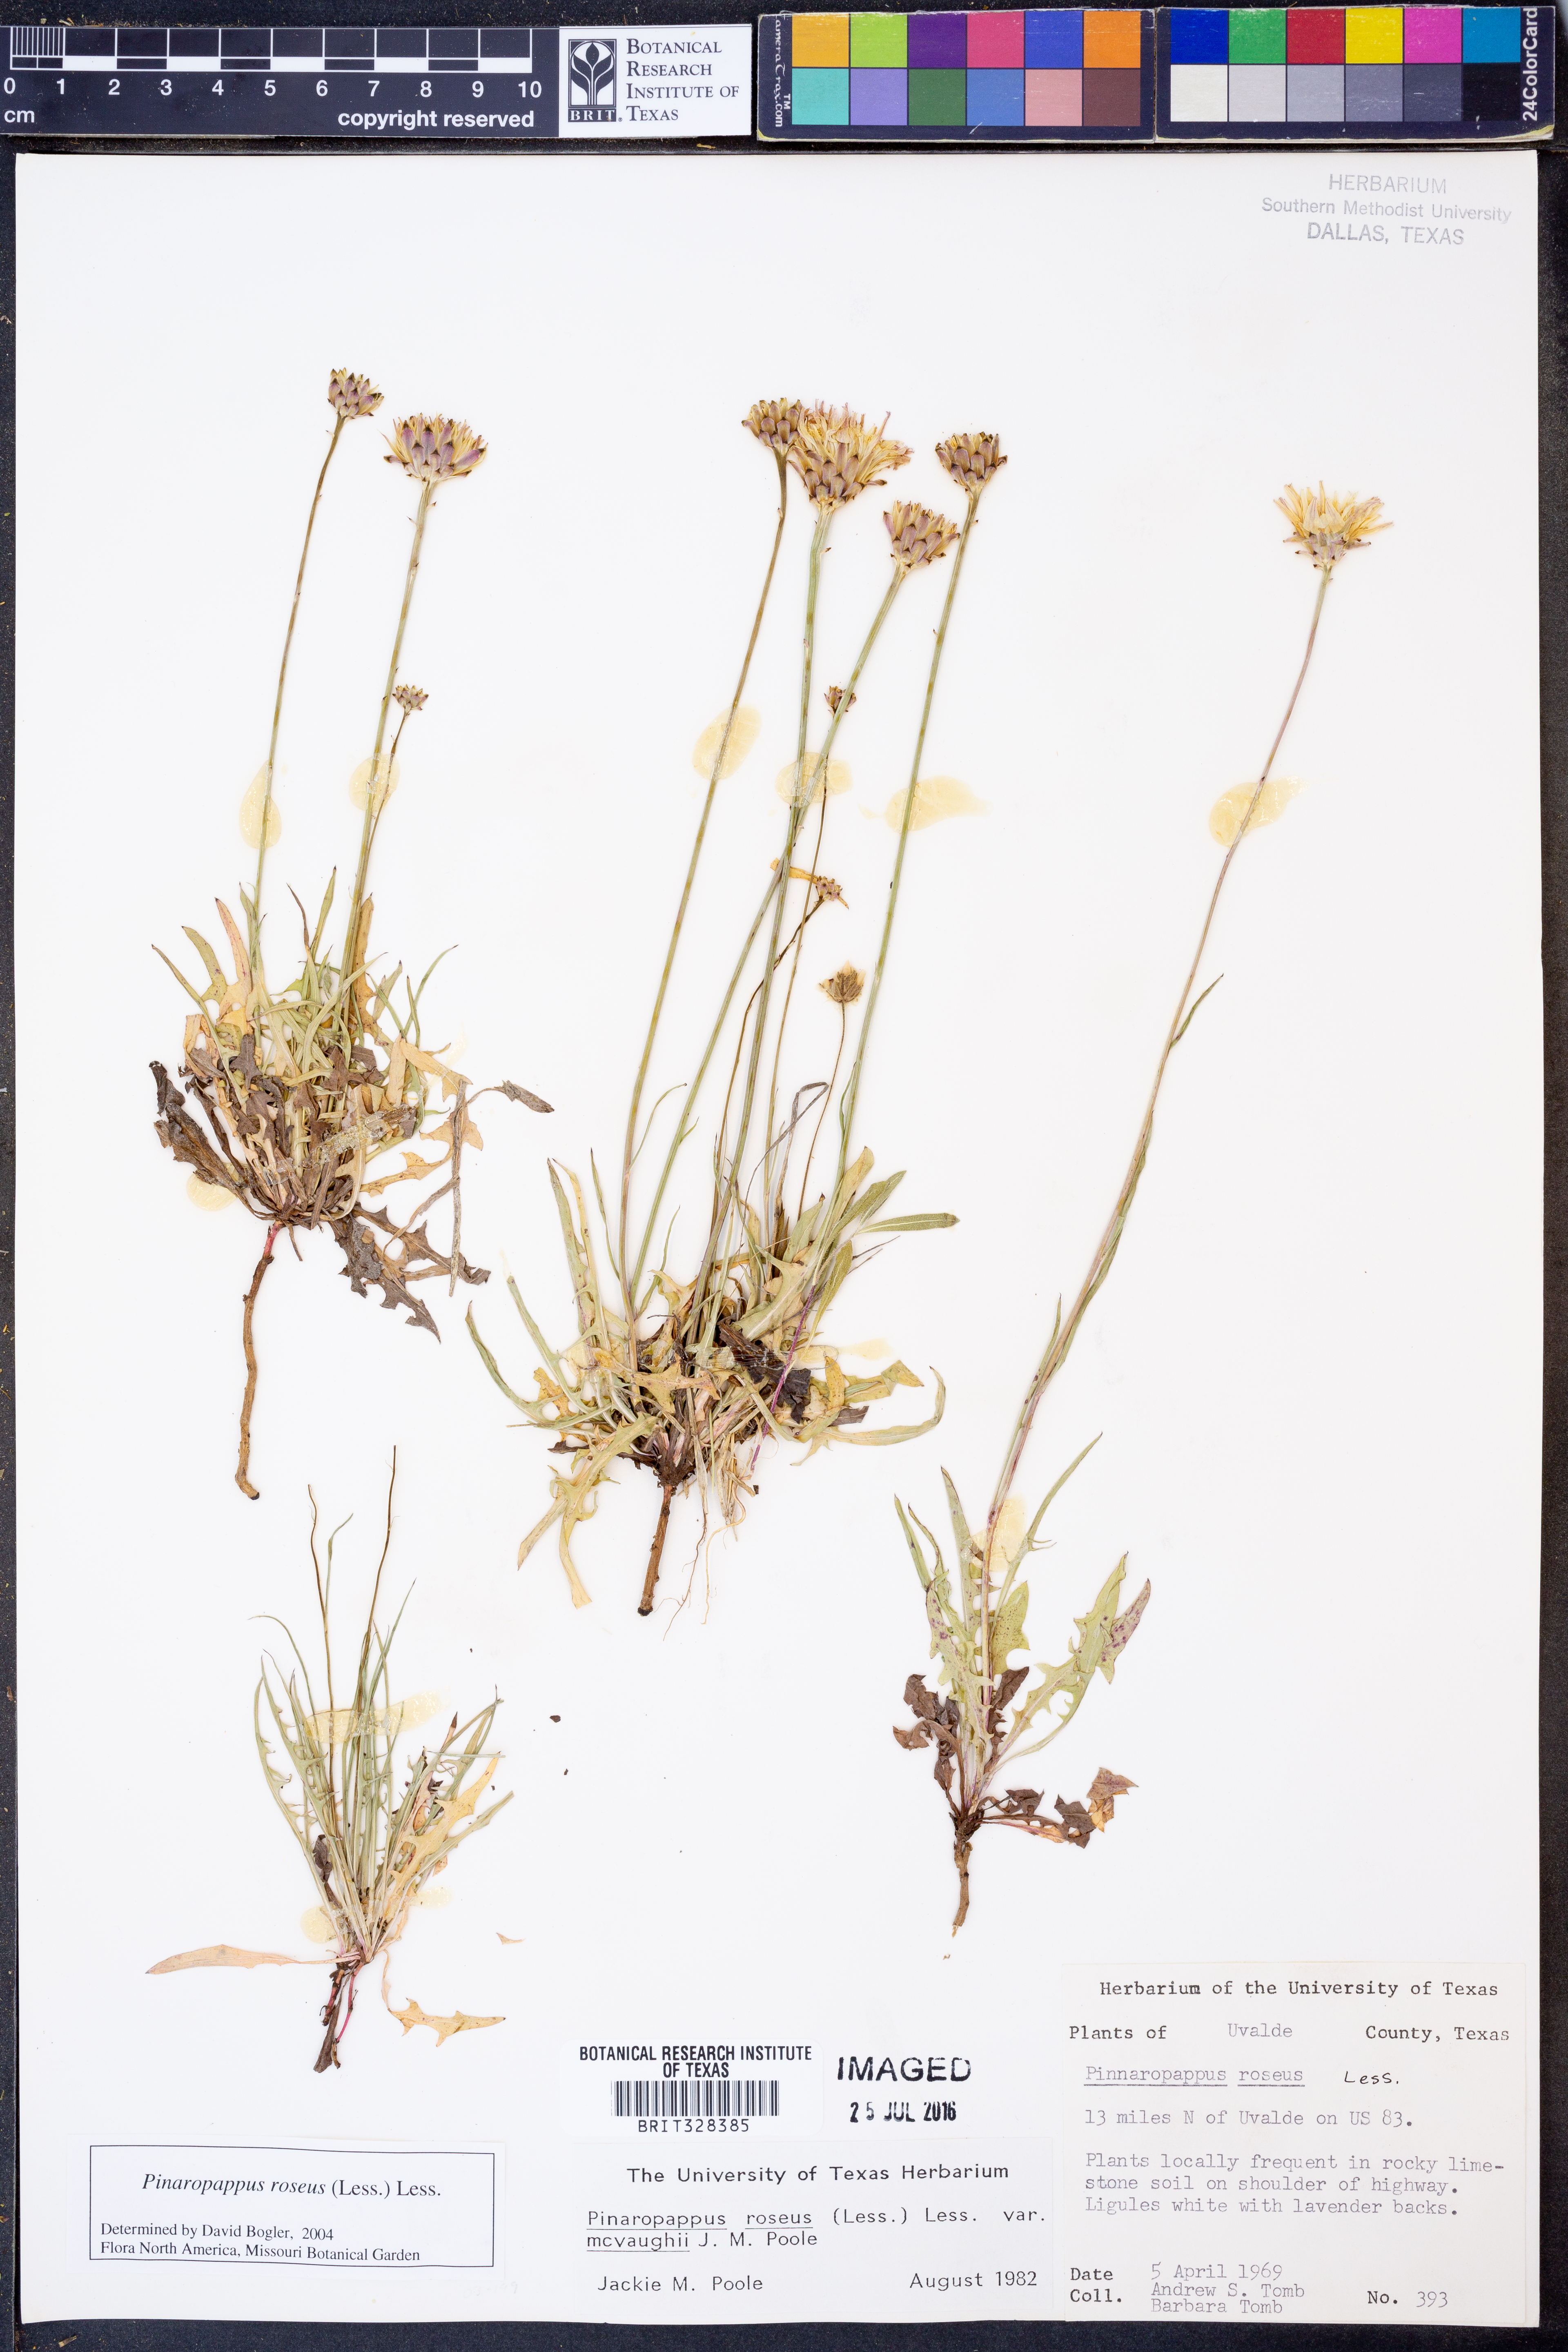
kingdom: Plantae
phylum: Tracheophyta
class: Magnoliopsida
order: Asterales
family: Asteraceae
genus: Pinaropappus
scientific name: Pinaropappus roseus
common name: Rock-lettuce
